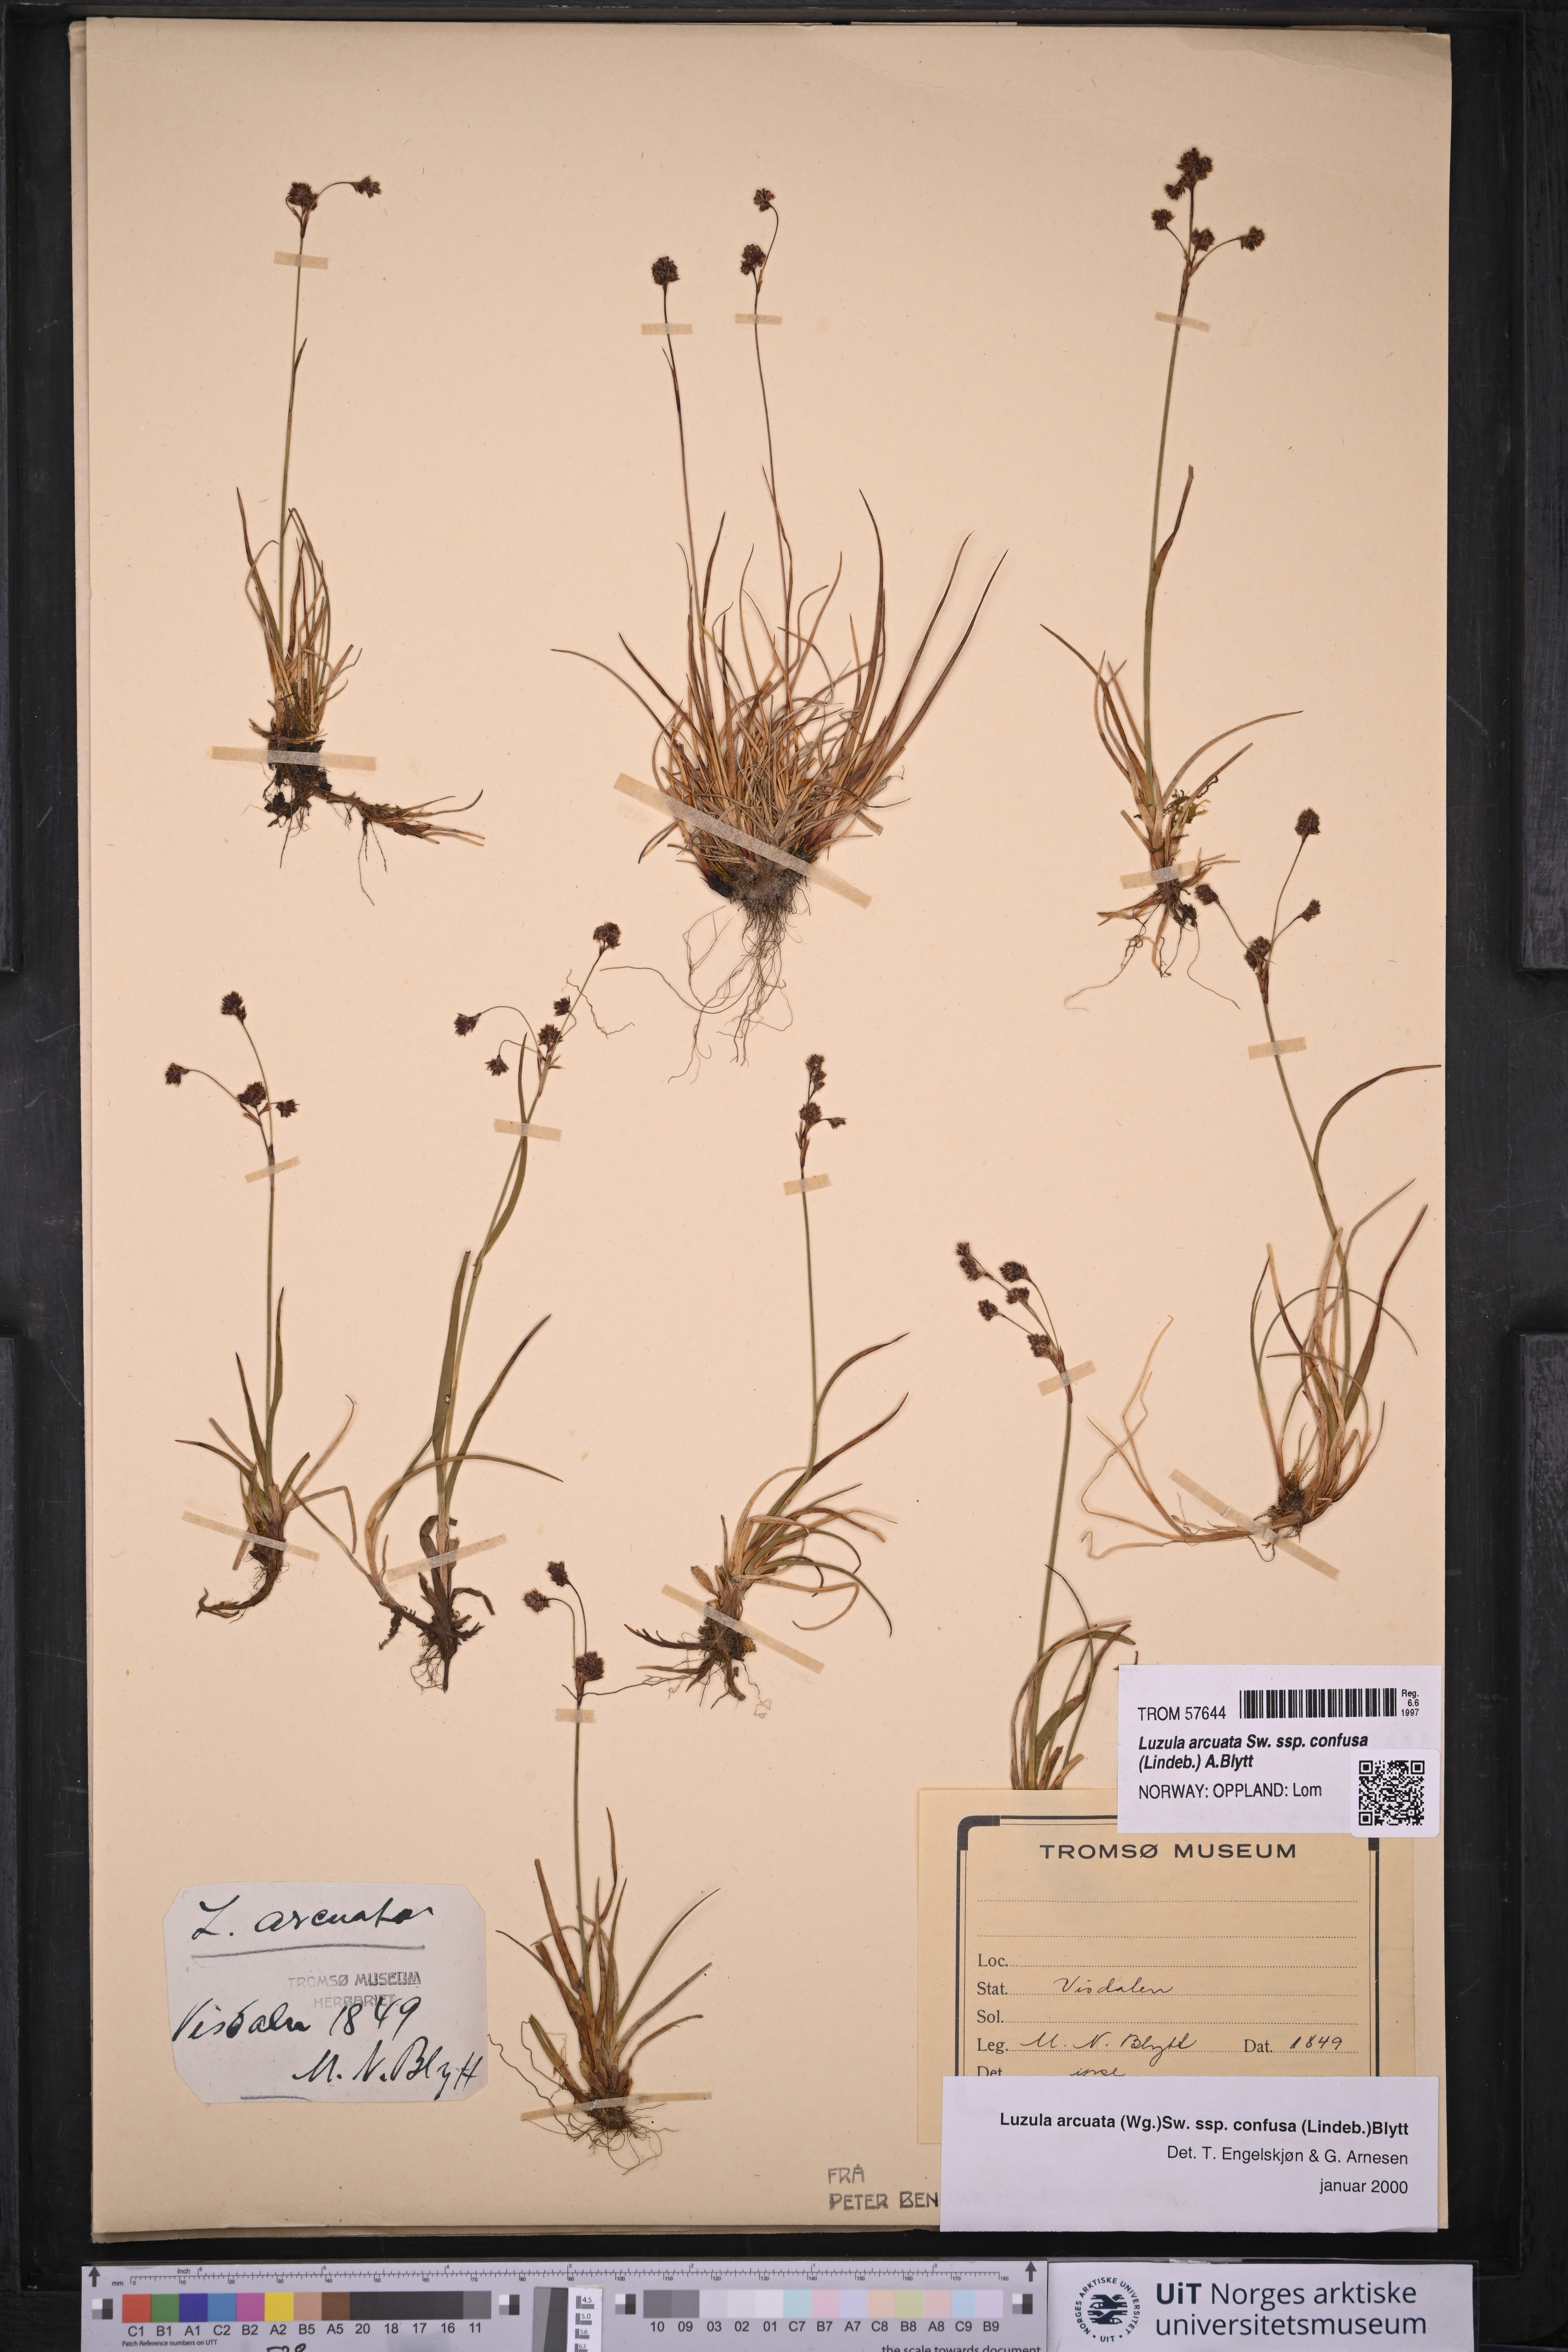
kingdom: Plantae
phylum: Tracheophyta
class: Liliopsida
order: Poales
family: Juncaceae
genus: Luzula
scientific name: Luzula confusa
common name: Northern wood rush
